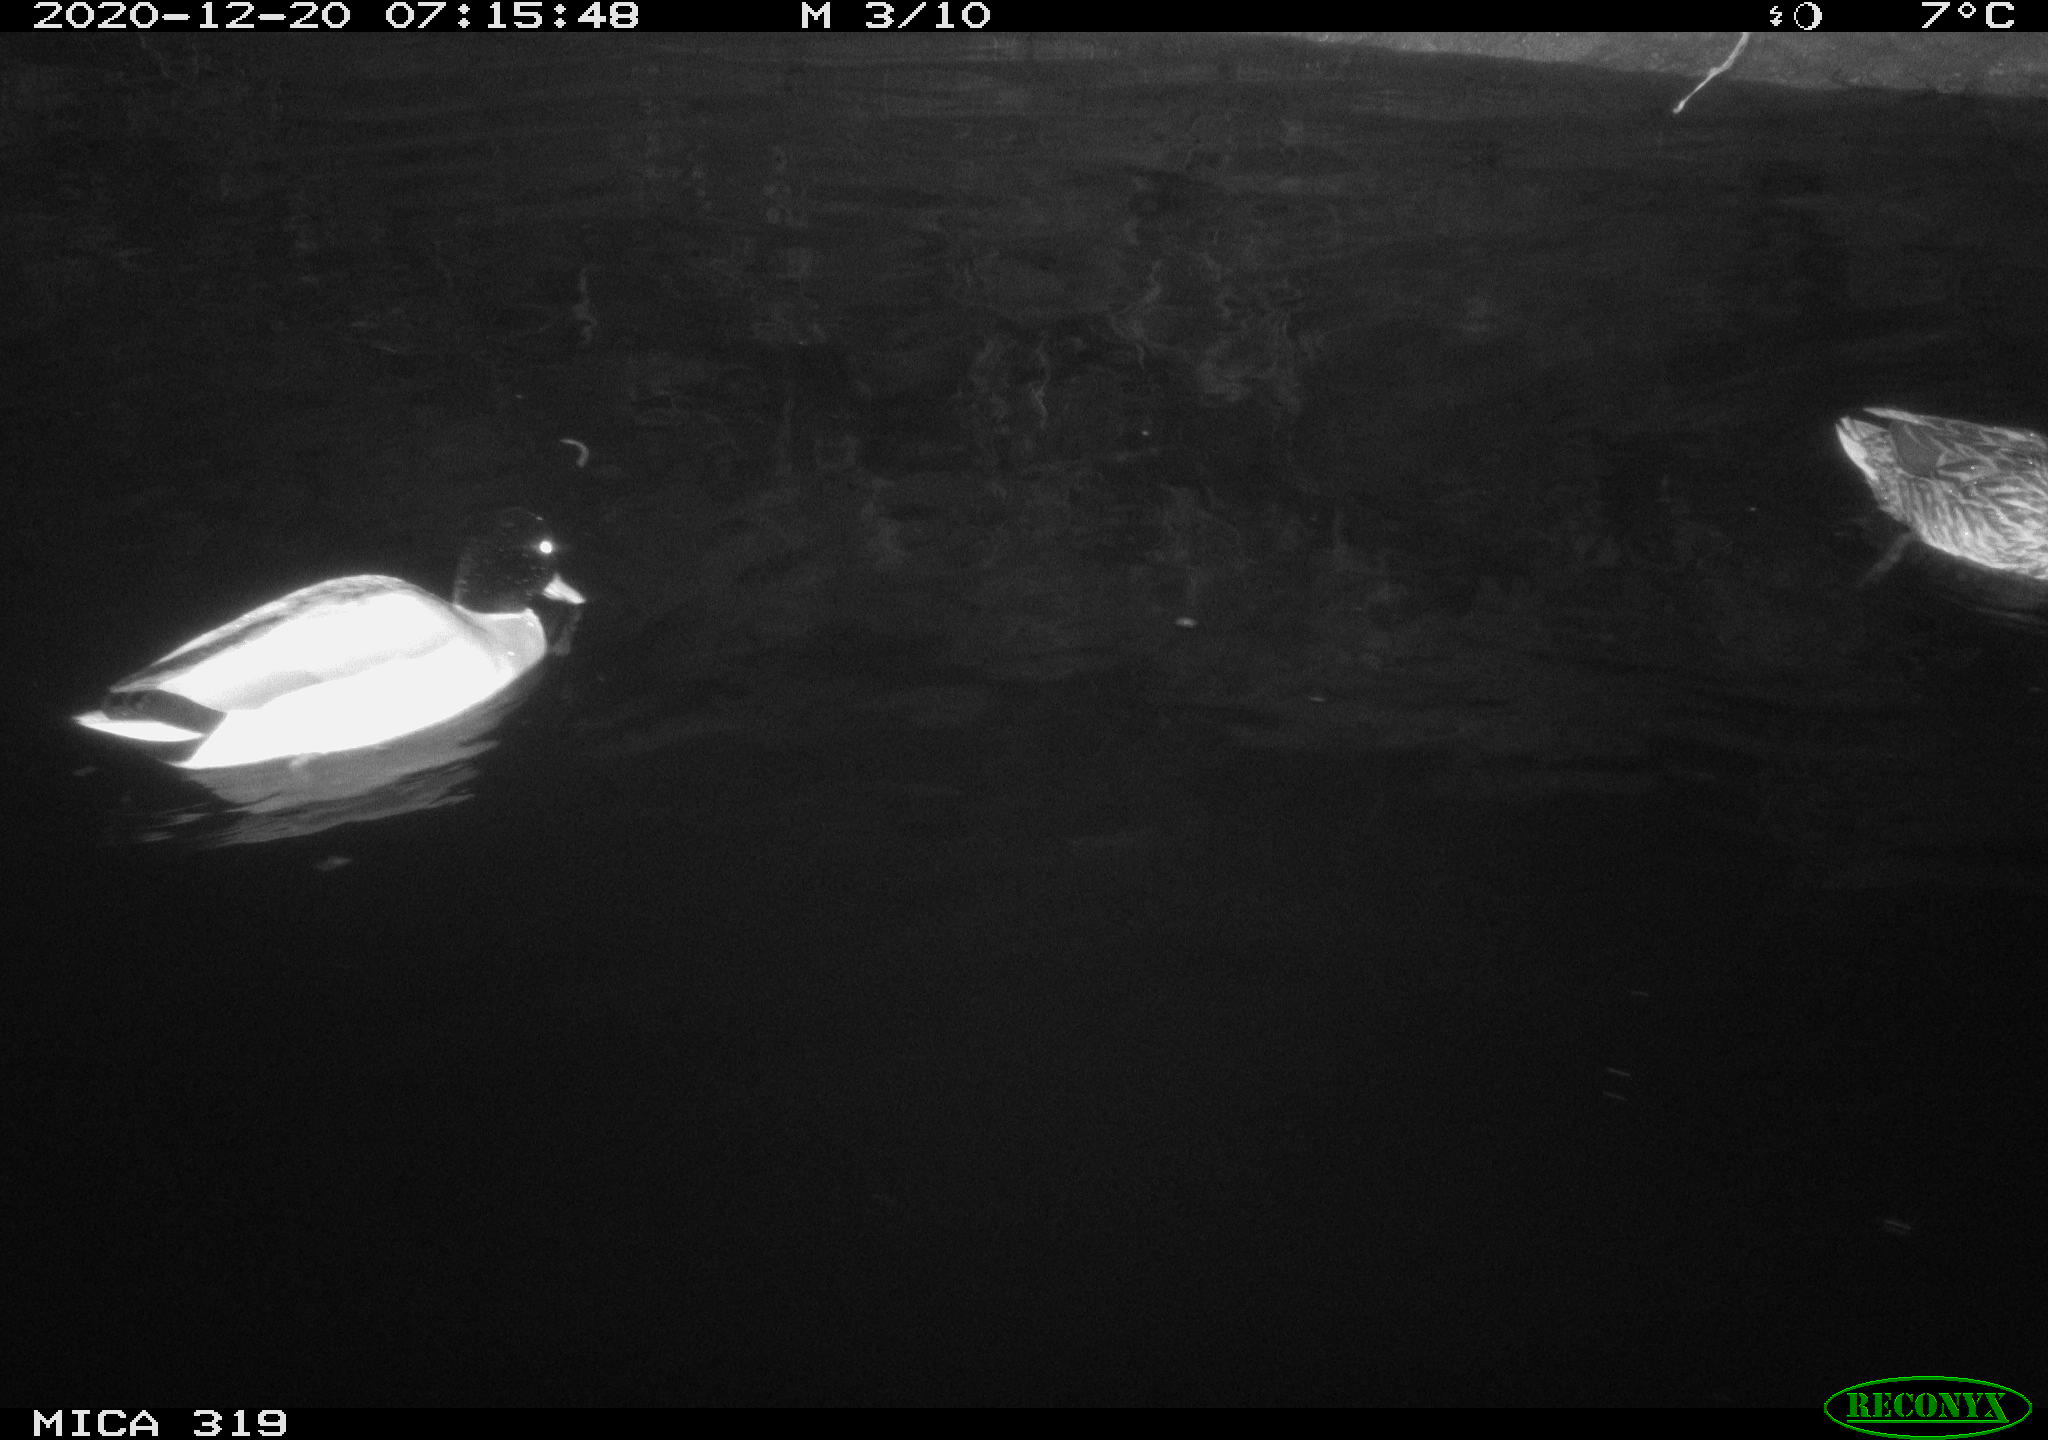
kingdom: Animalia
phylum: Chordata
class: Aves
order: Anseriformes
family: Anatidae
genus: Anas
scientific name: Anas platyrhynchos
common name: Mallard
